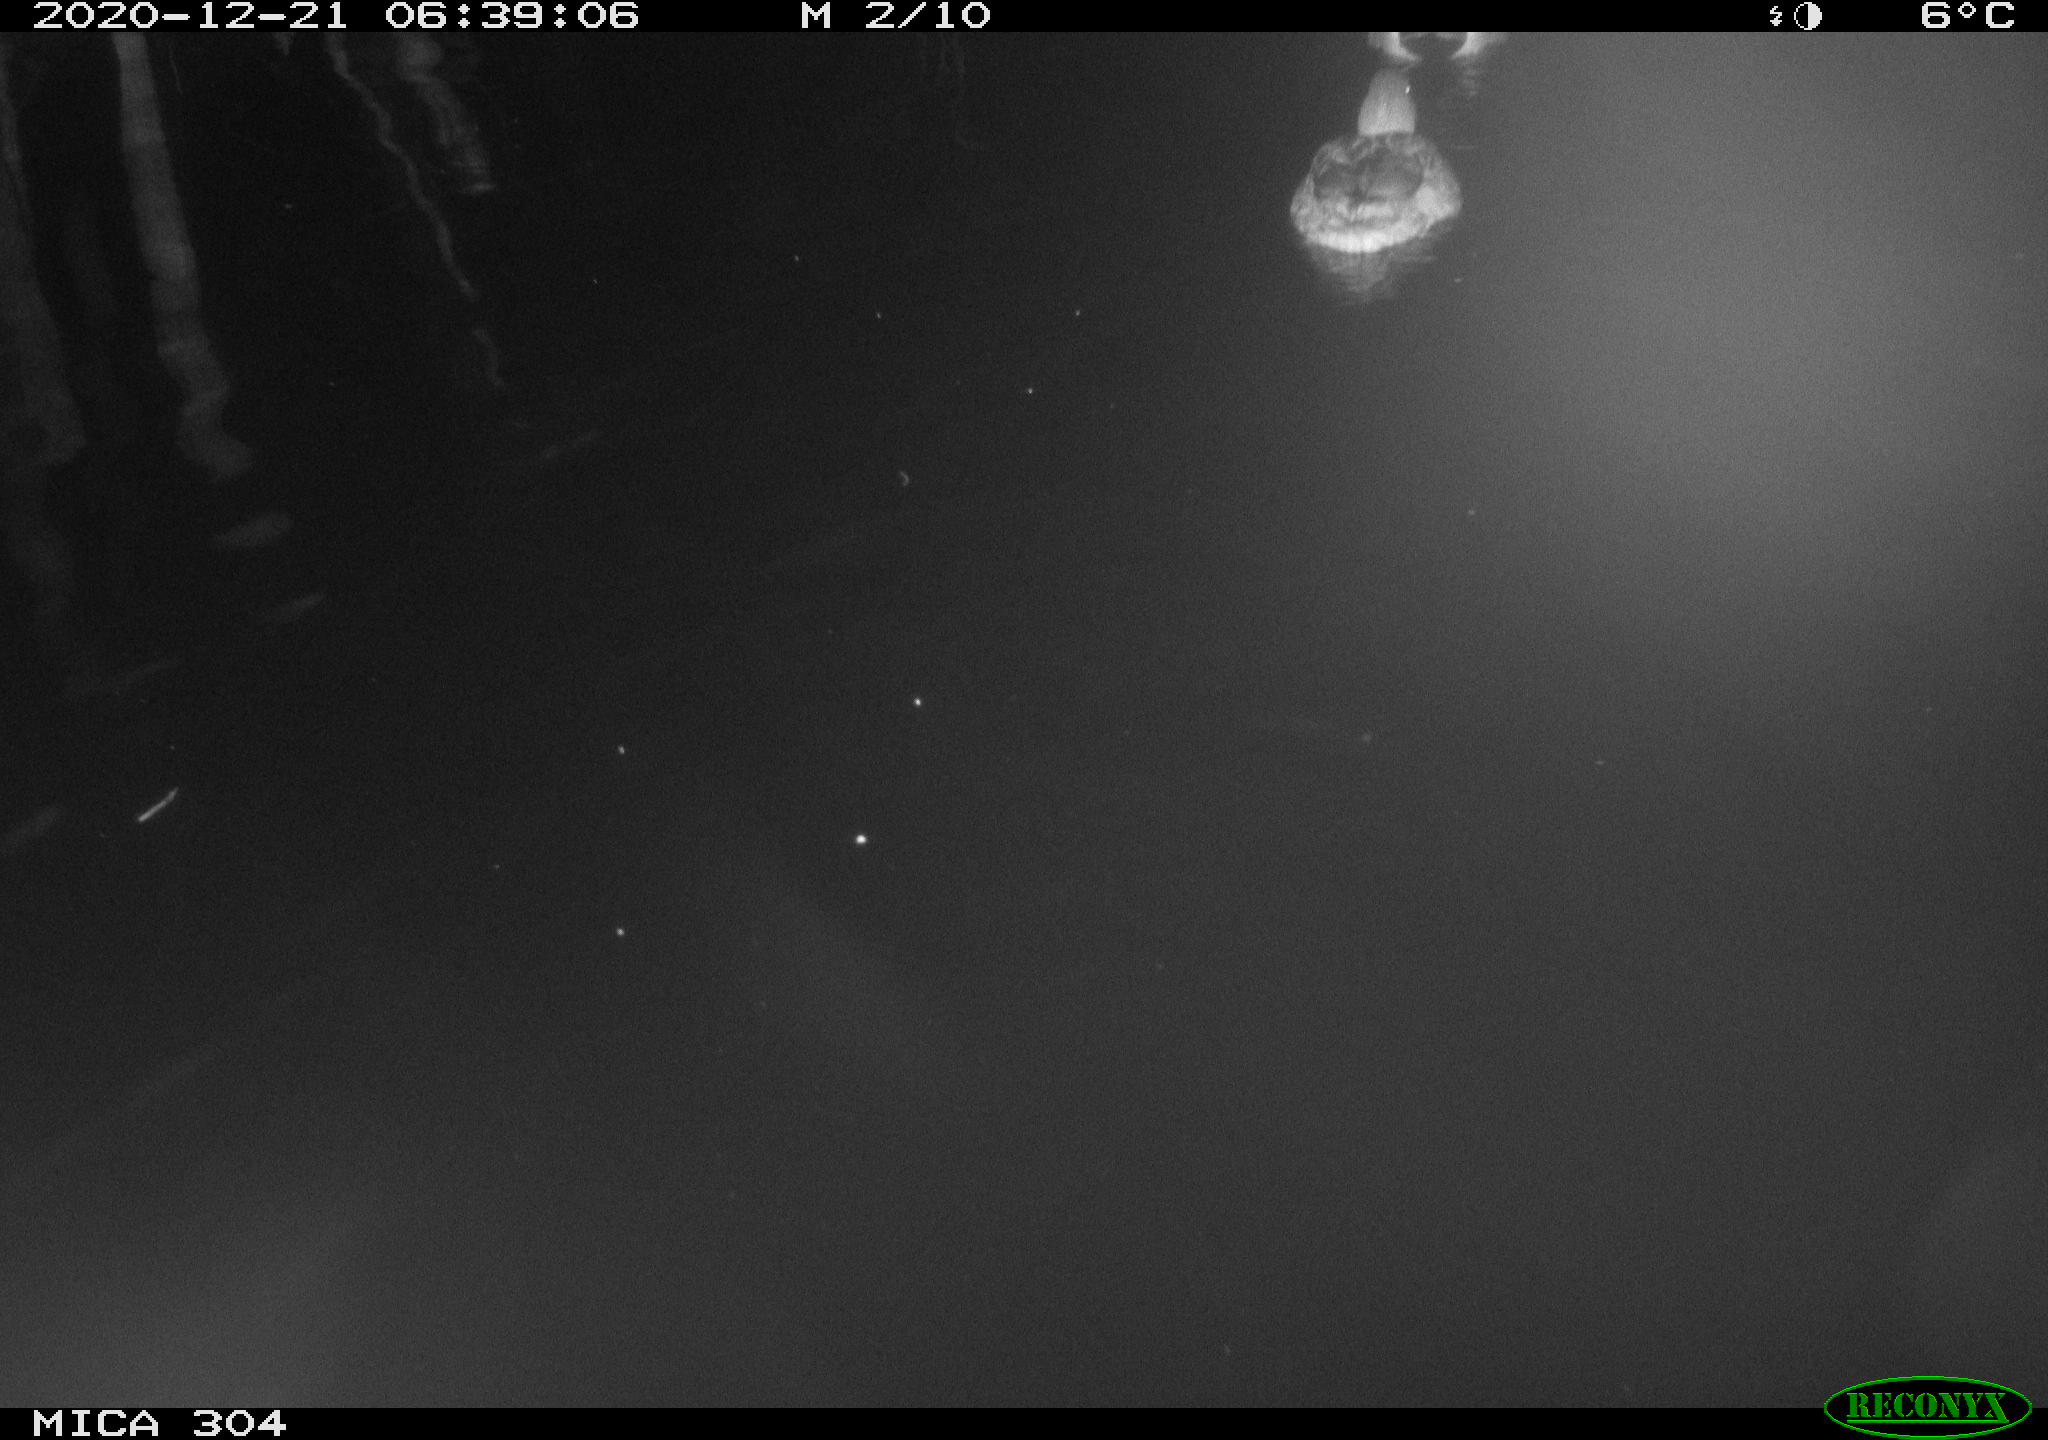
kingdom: Animalia
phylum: Chordata
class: Aves
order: Anseriformes
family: Anatidae
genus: Anas
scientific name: Anas platyrhynchos
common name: Mallard
